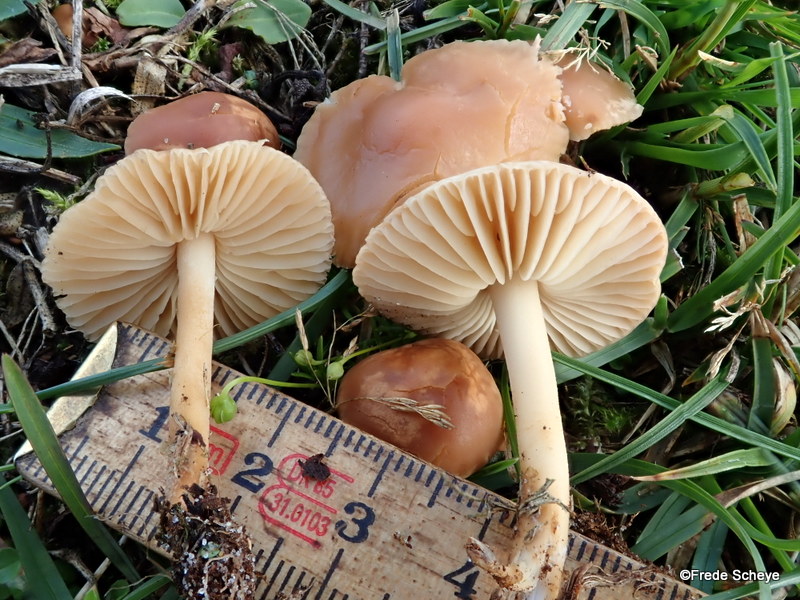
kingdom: Fungi
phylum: Basidiomycota
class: Agaricomycetes
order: Agaricales
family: Marasmiaceae
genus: Marasmius
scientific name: Marasmius oreades
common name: elledans-bruskhat
